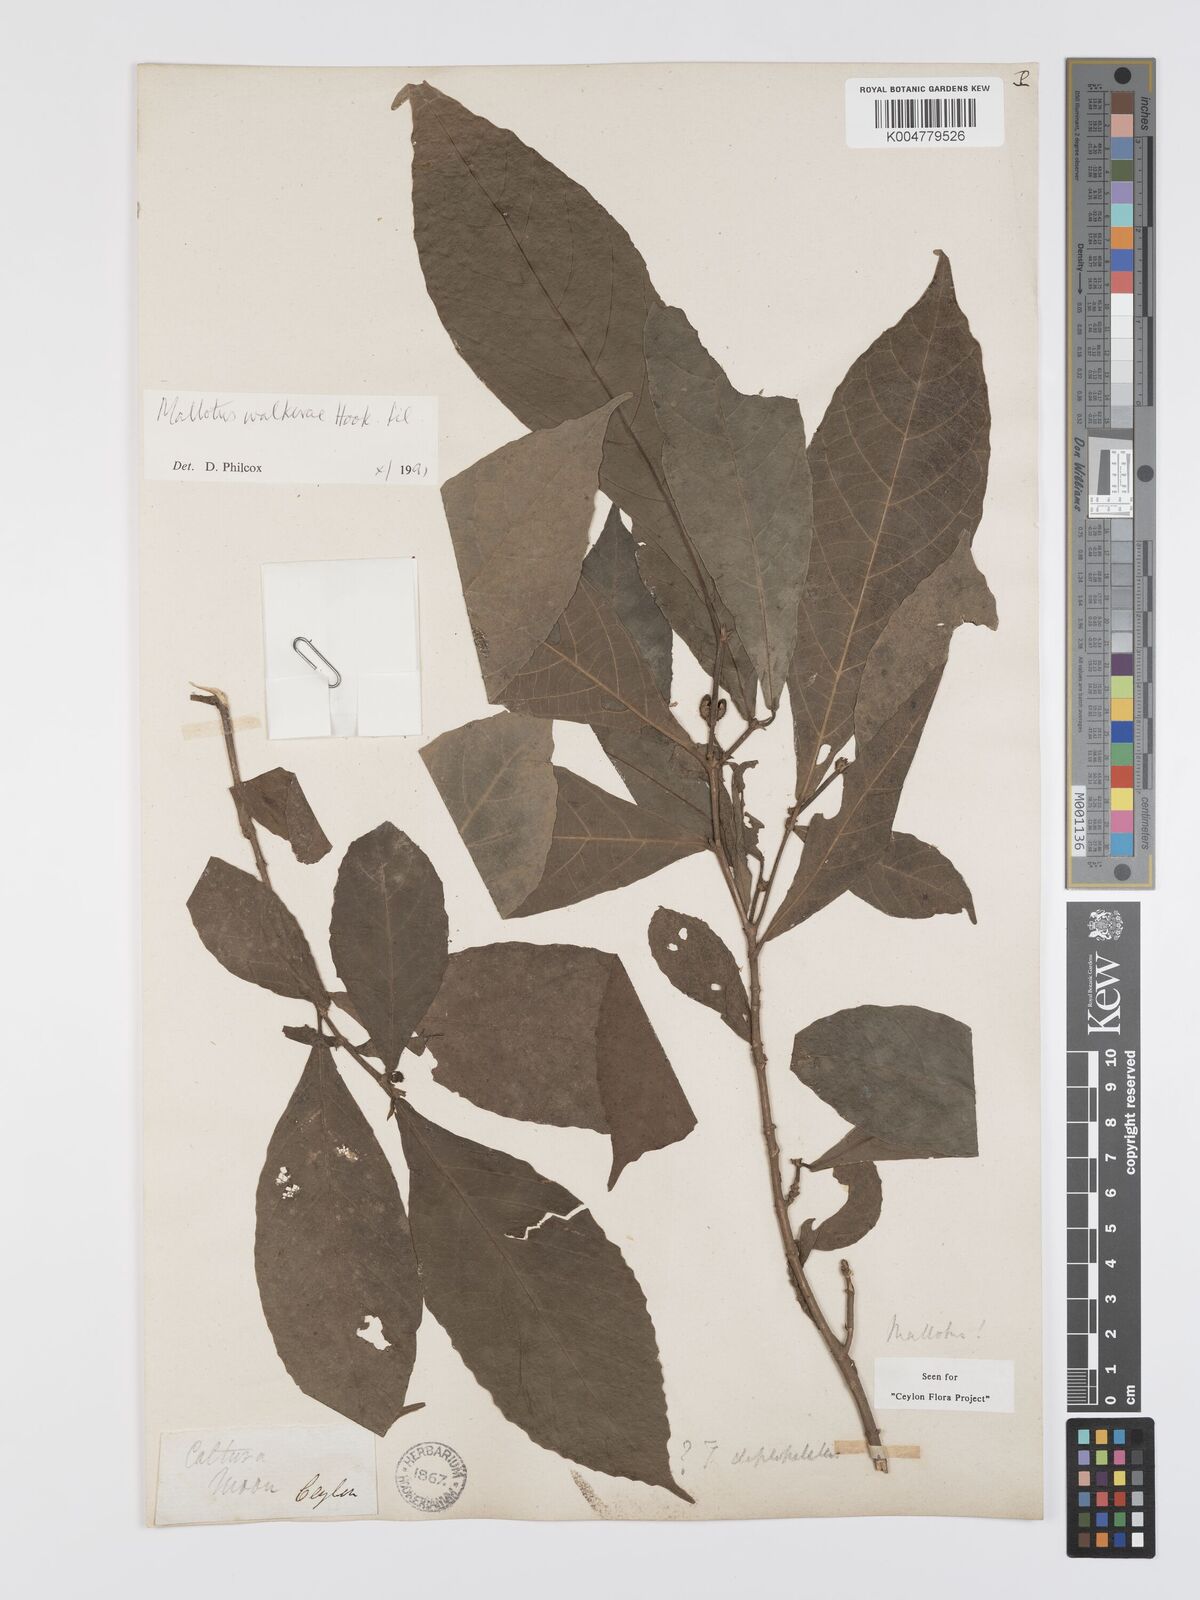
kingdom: Plantae
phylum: Tracheophyta
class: Magnoliopsida
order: Malpighiales
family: Euphorbiaceae
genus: Mallotus
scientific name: Mallotus resinosus
